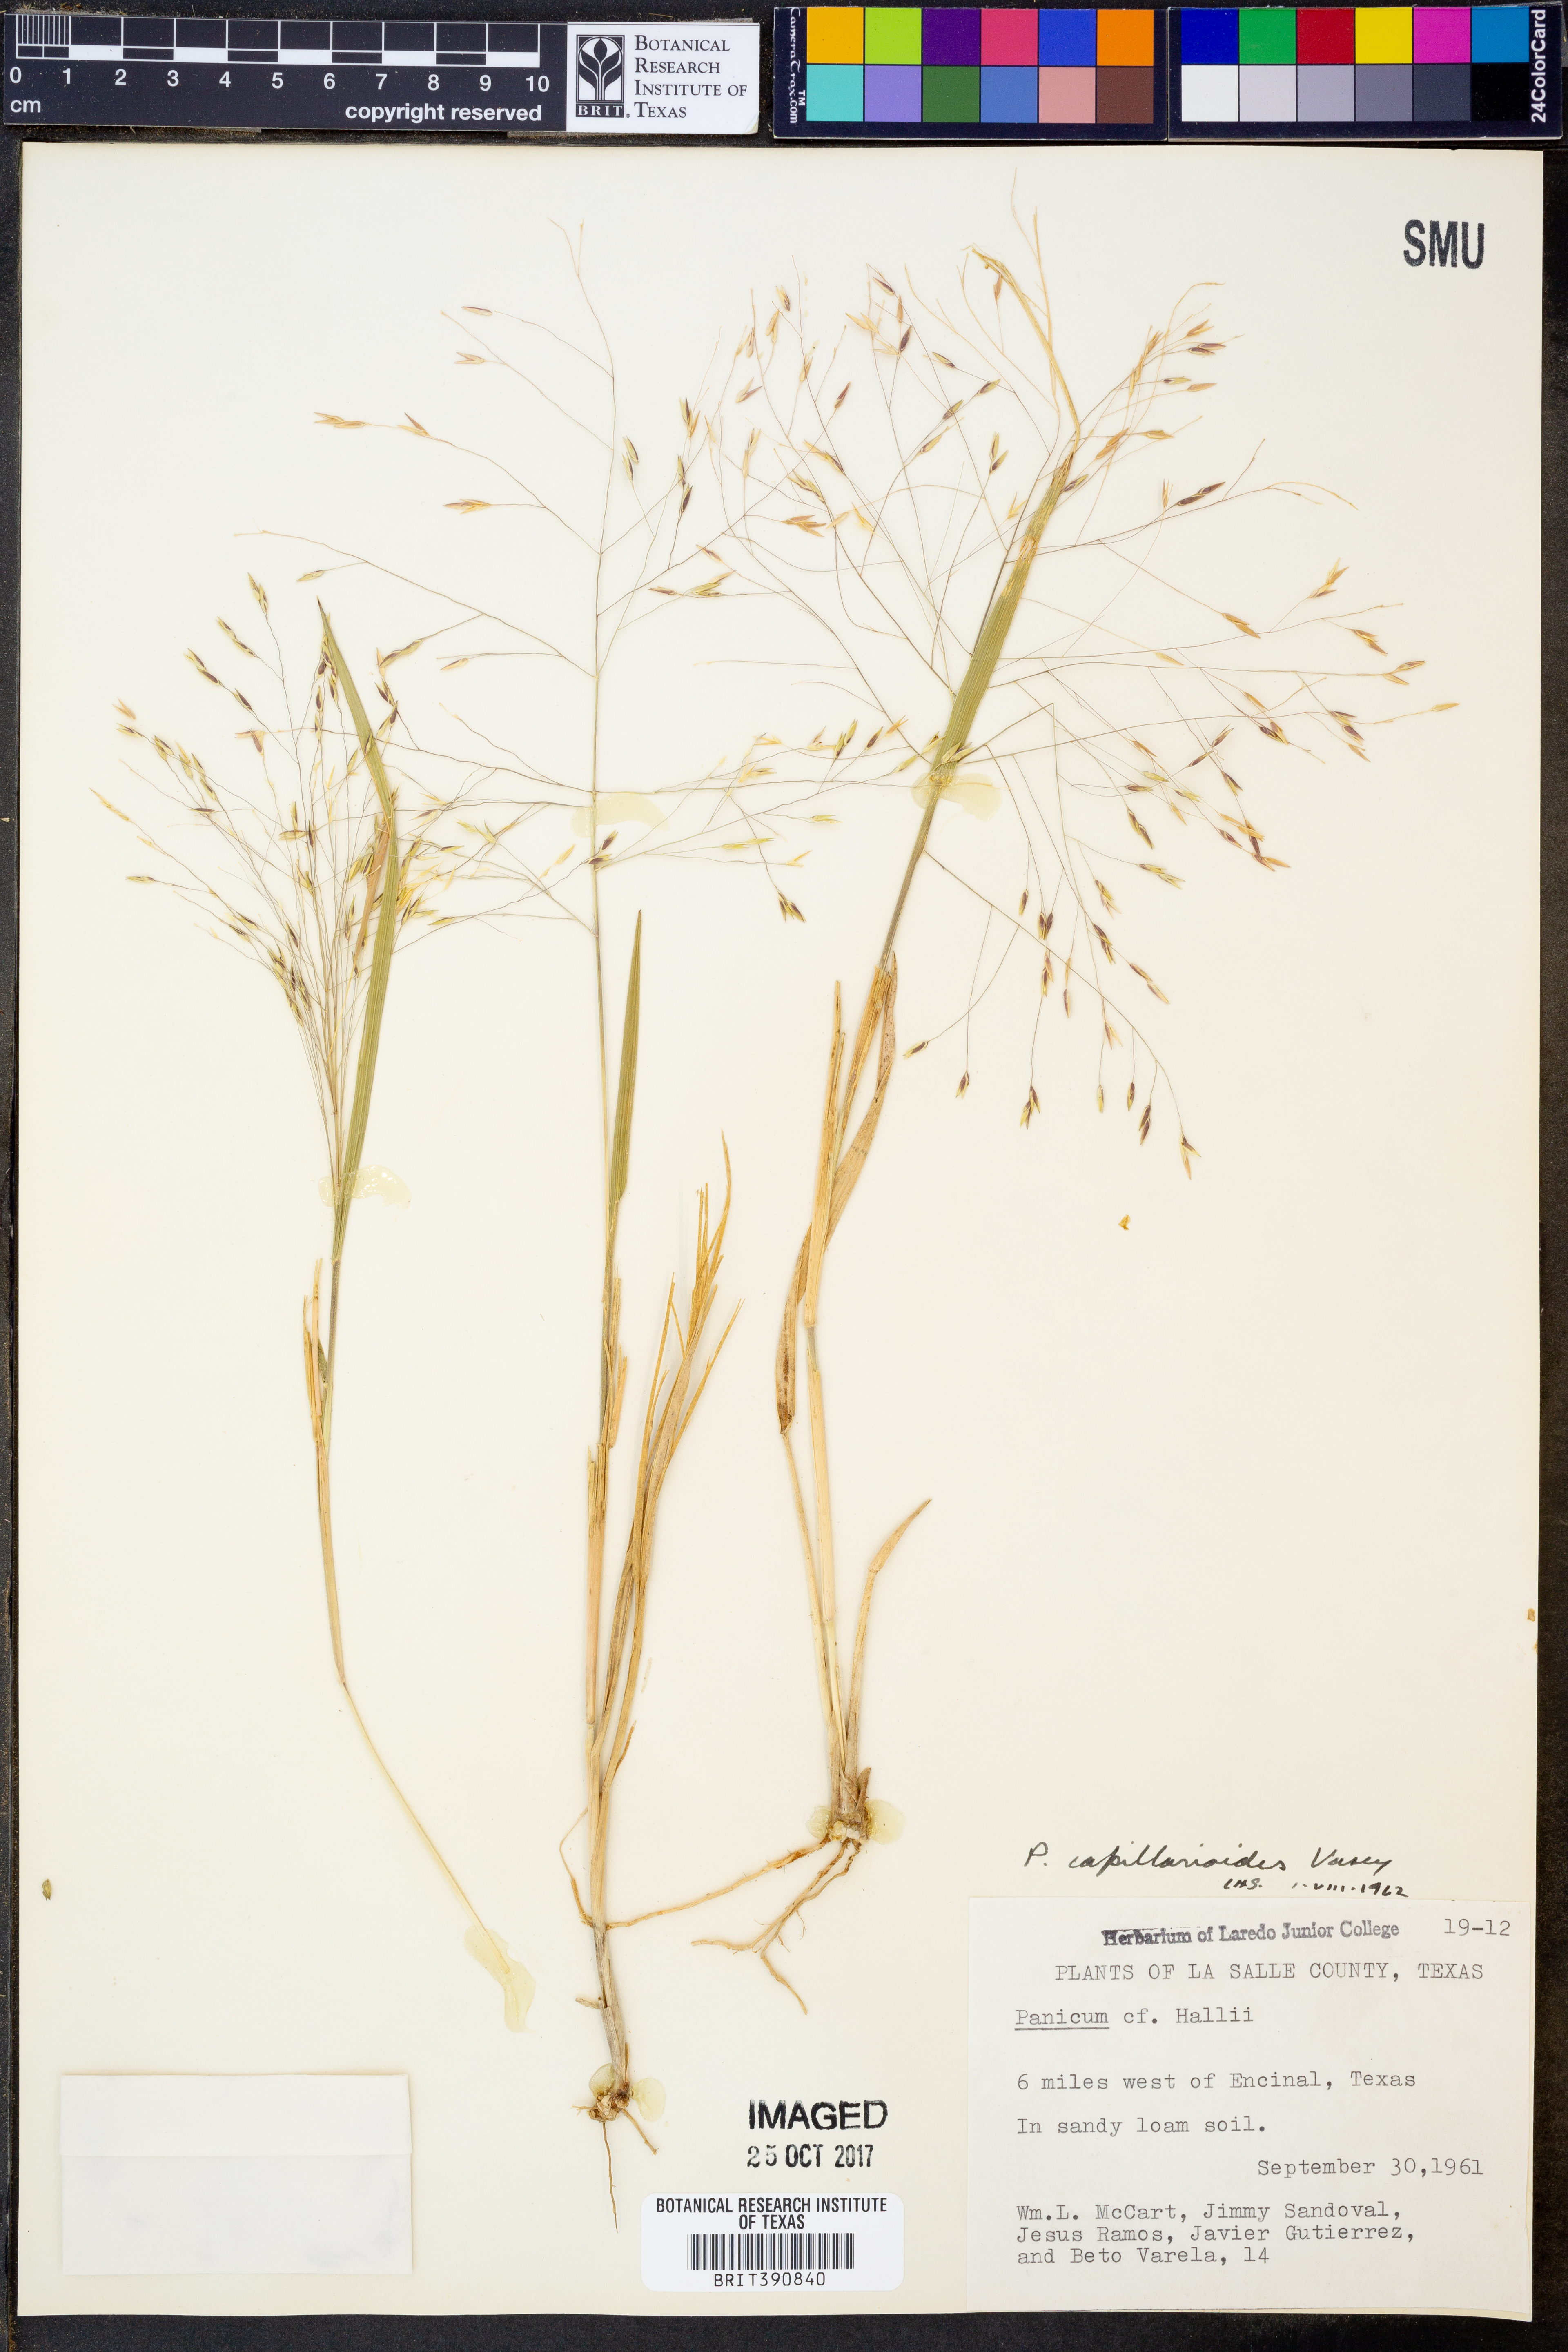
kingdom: Plantae
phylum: Tracheophyta
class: Liliopsida
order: Poales
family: Poaceae
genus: Panicum
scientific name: Panicum capillarioides
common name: Long-beak witchgrass
